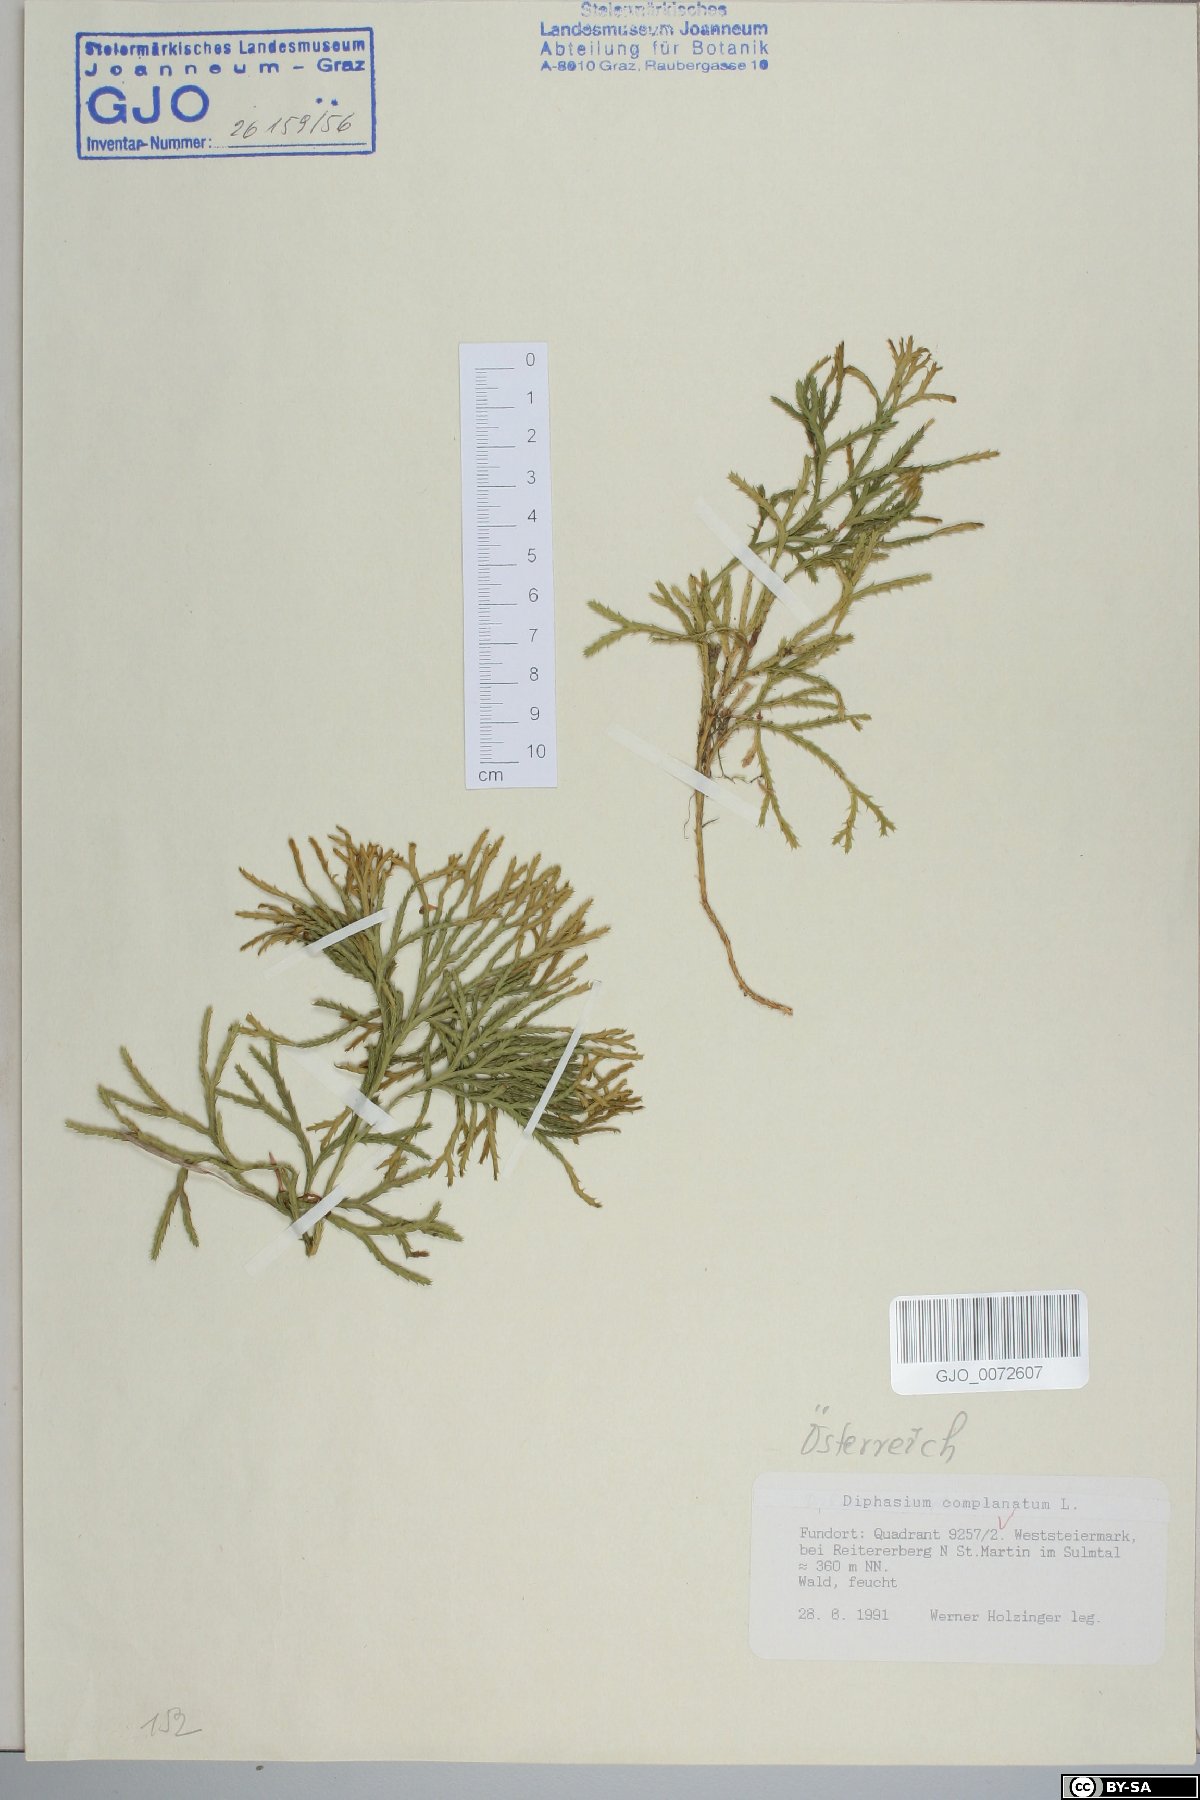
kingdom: Plantae
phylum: Tracheophyta
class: Lycopodiopsida
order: Lycopodiales
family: Lycopodiaceae
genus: Diphasiastrum
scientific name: Diphasiastrum complanatum
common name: Northern running-pine
